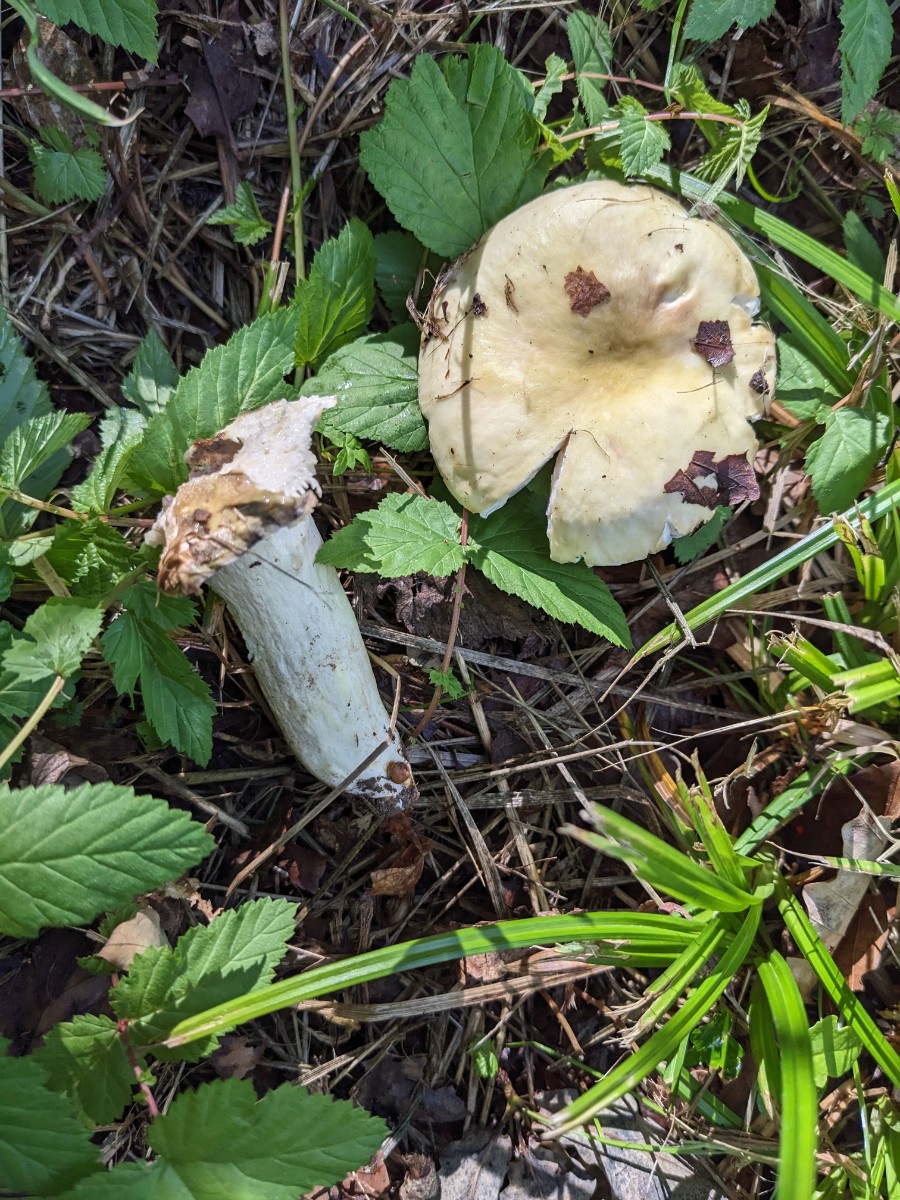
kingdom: Fungi
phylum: Basidiomycota
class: Agaricomycetes
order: Russulales
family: Russulaceae
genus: Russula
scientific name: Russula violeipes
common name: ferskengul skørhat
